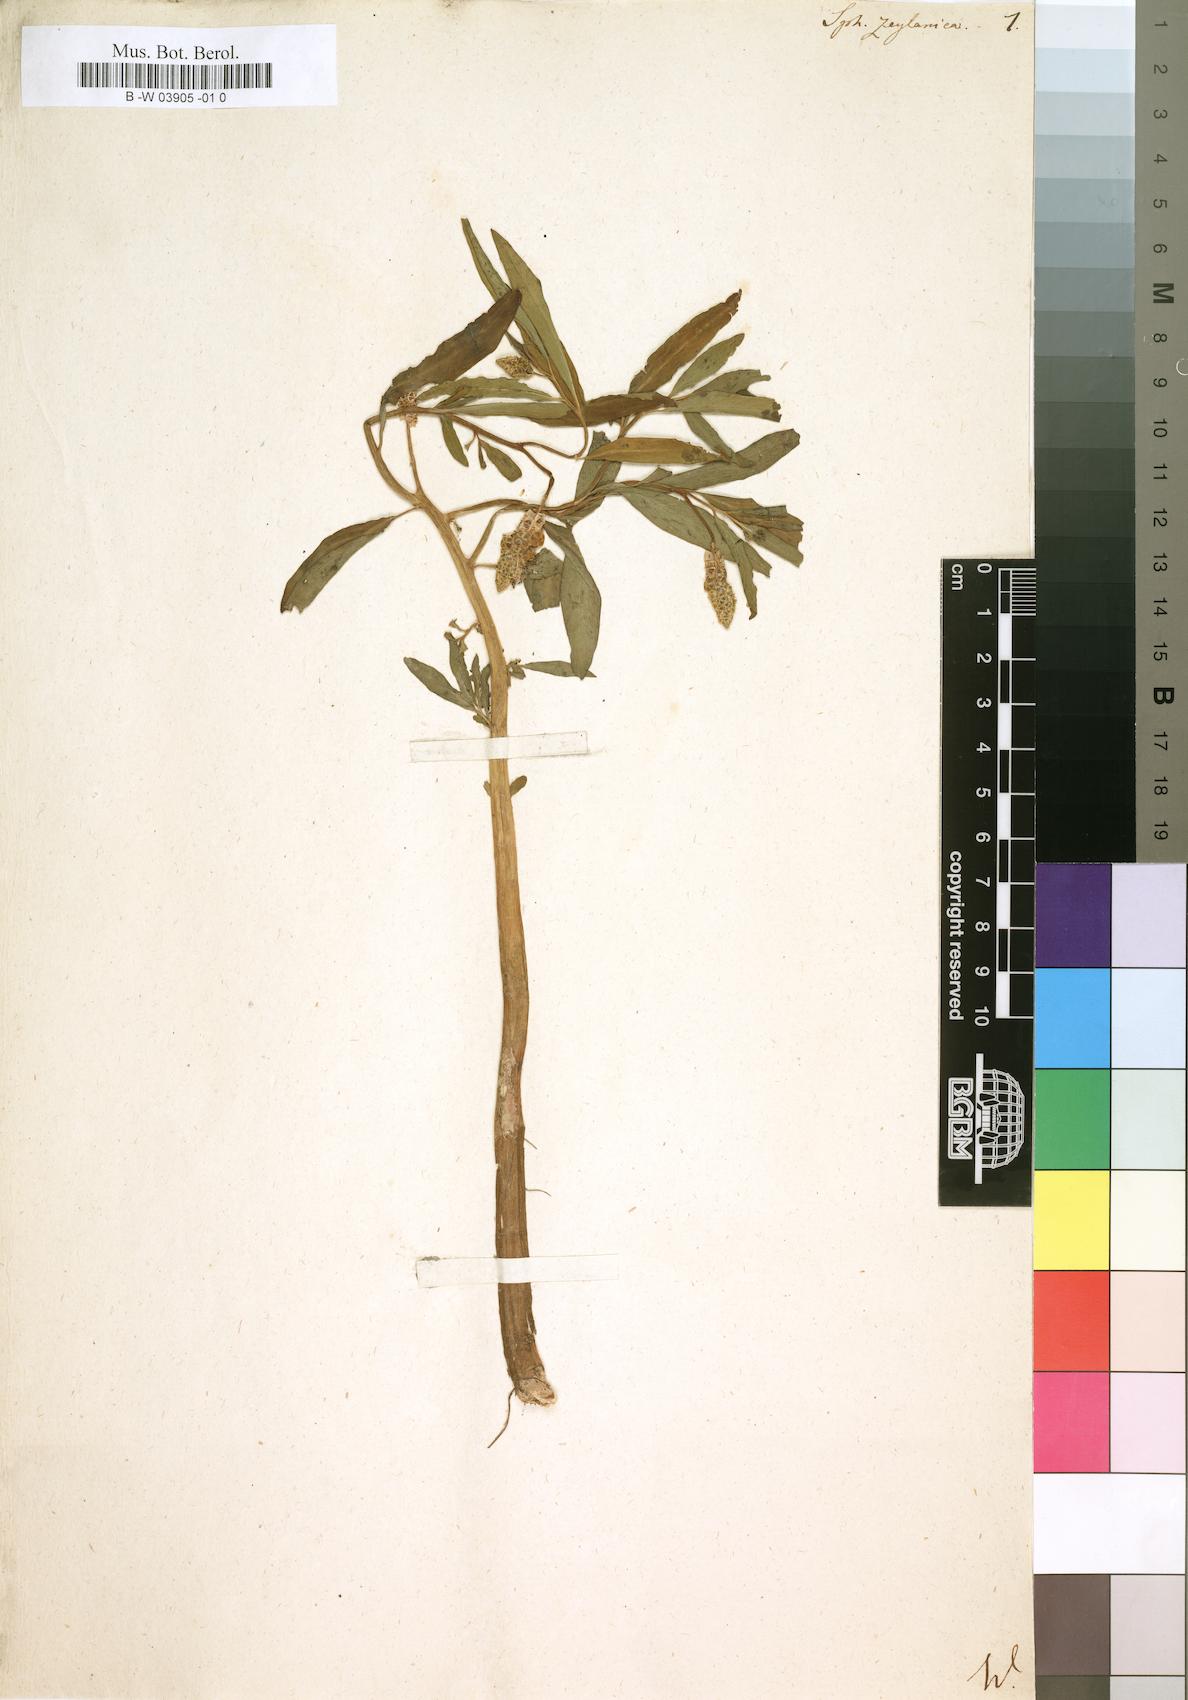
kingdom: Plantae
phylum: Tracheophyta
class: Magnoliopsida
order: Solanales
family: Sphenocleaceae
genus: Sphenoclea
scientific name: Sphenoclea zeylanica
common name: Chickenspike
